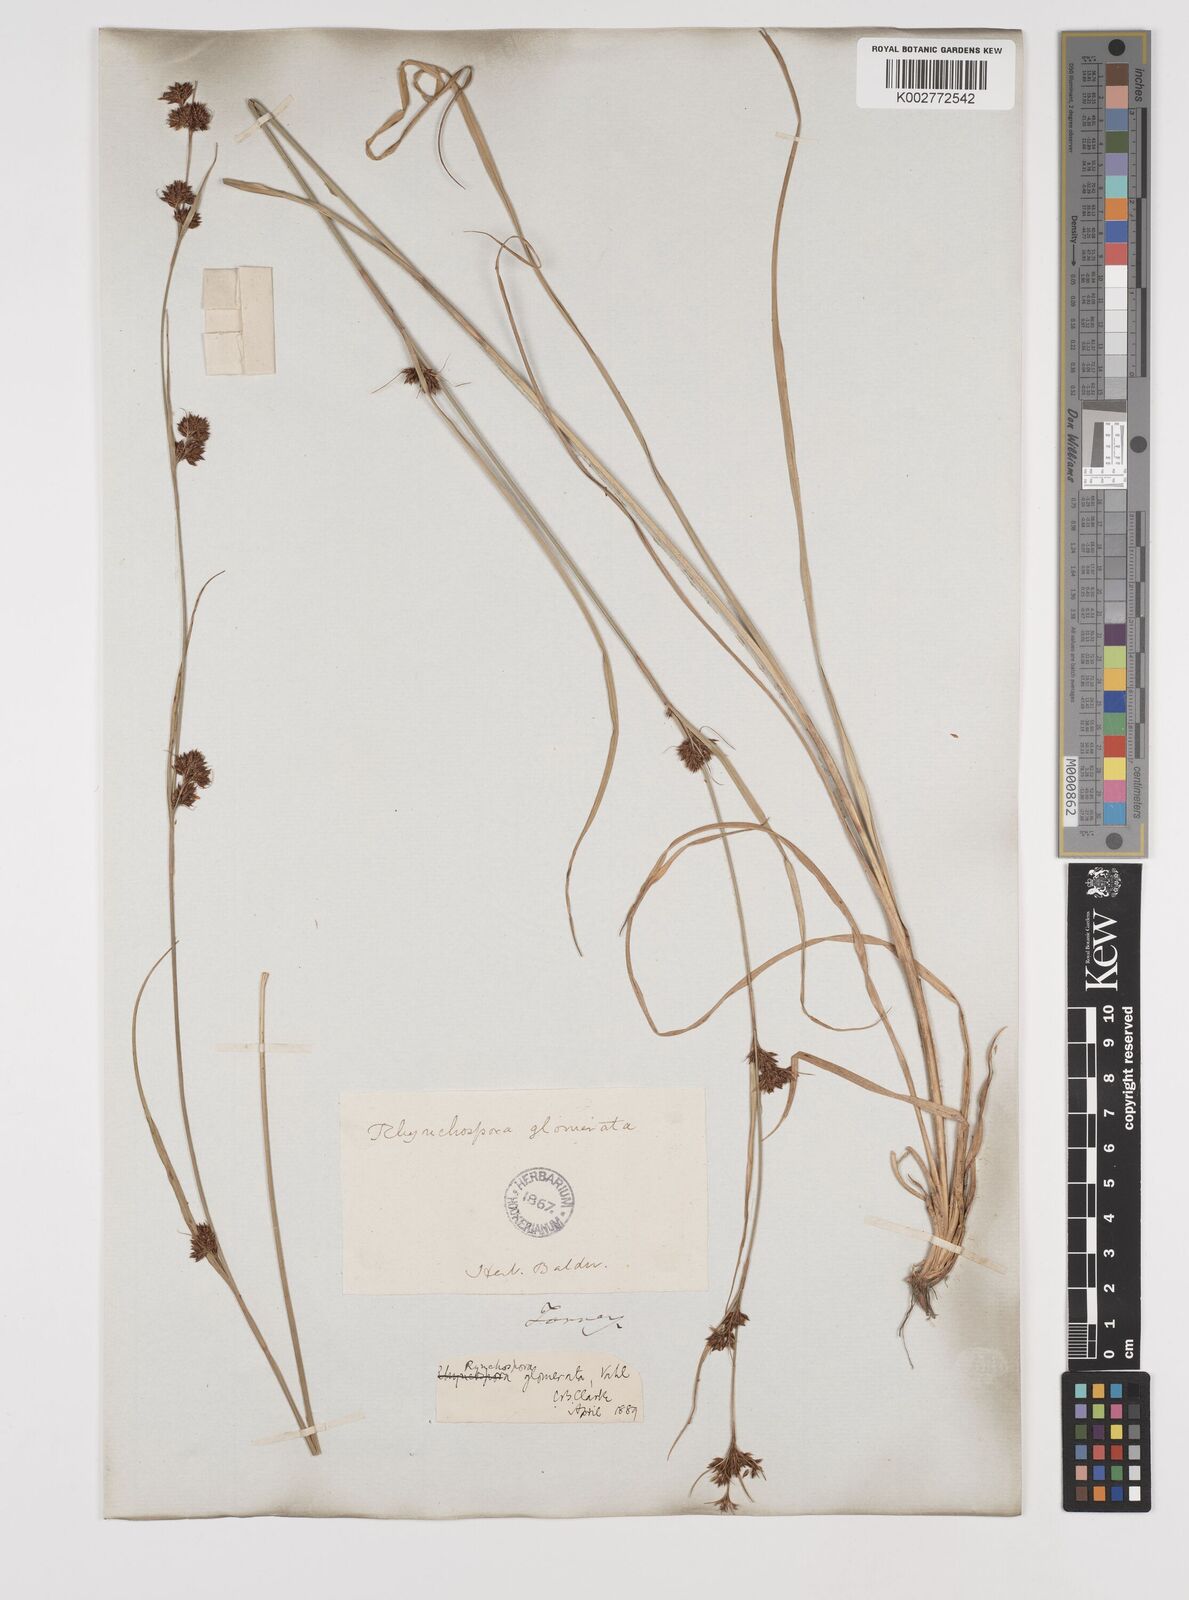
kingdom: Plantae
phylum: Tracheophyta
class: Liliopsida
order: Poales
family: Cyperaceae
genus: Rhynchospora
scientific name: Rhynchospora glomerata
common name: Cluster beak sedge
